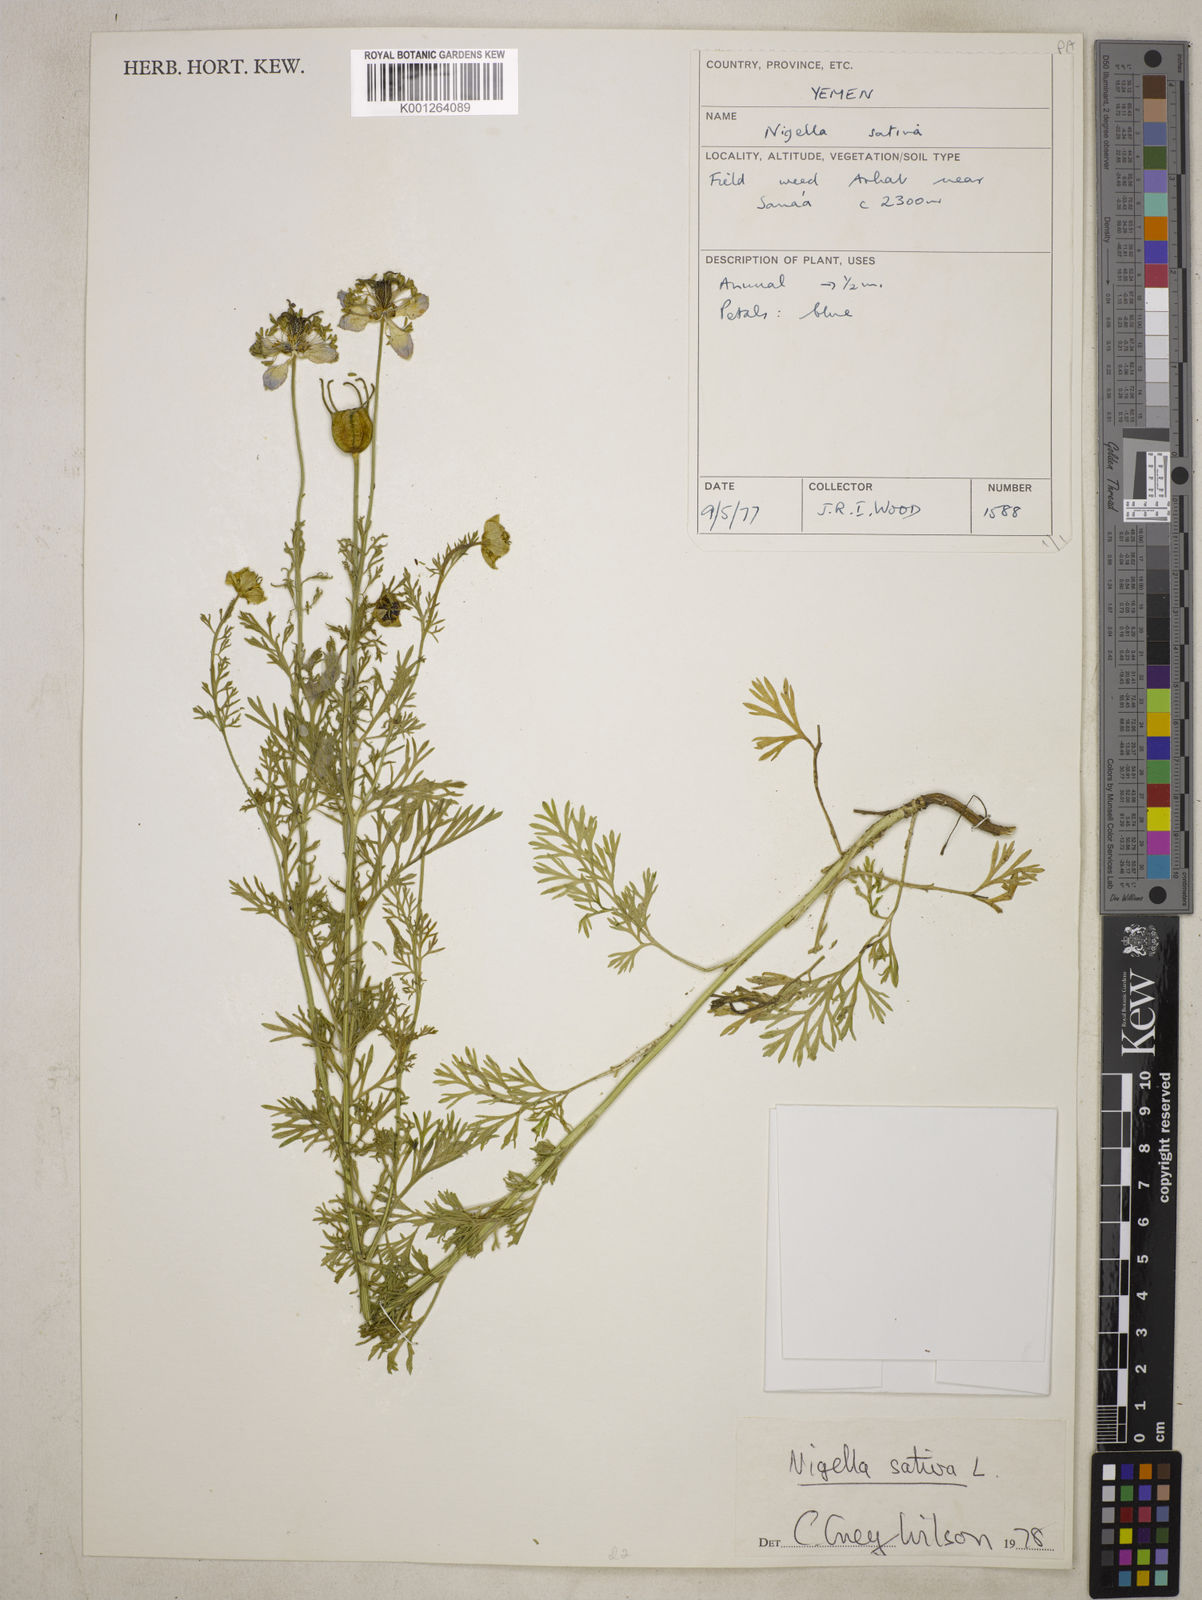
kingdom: Plantae
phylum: Tracheophyta
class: Magnoliopsida
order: Ranunculales
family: Ranunculaceae
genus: Nigella
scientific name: Nigella sativa
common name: Black-cumin
